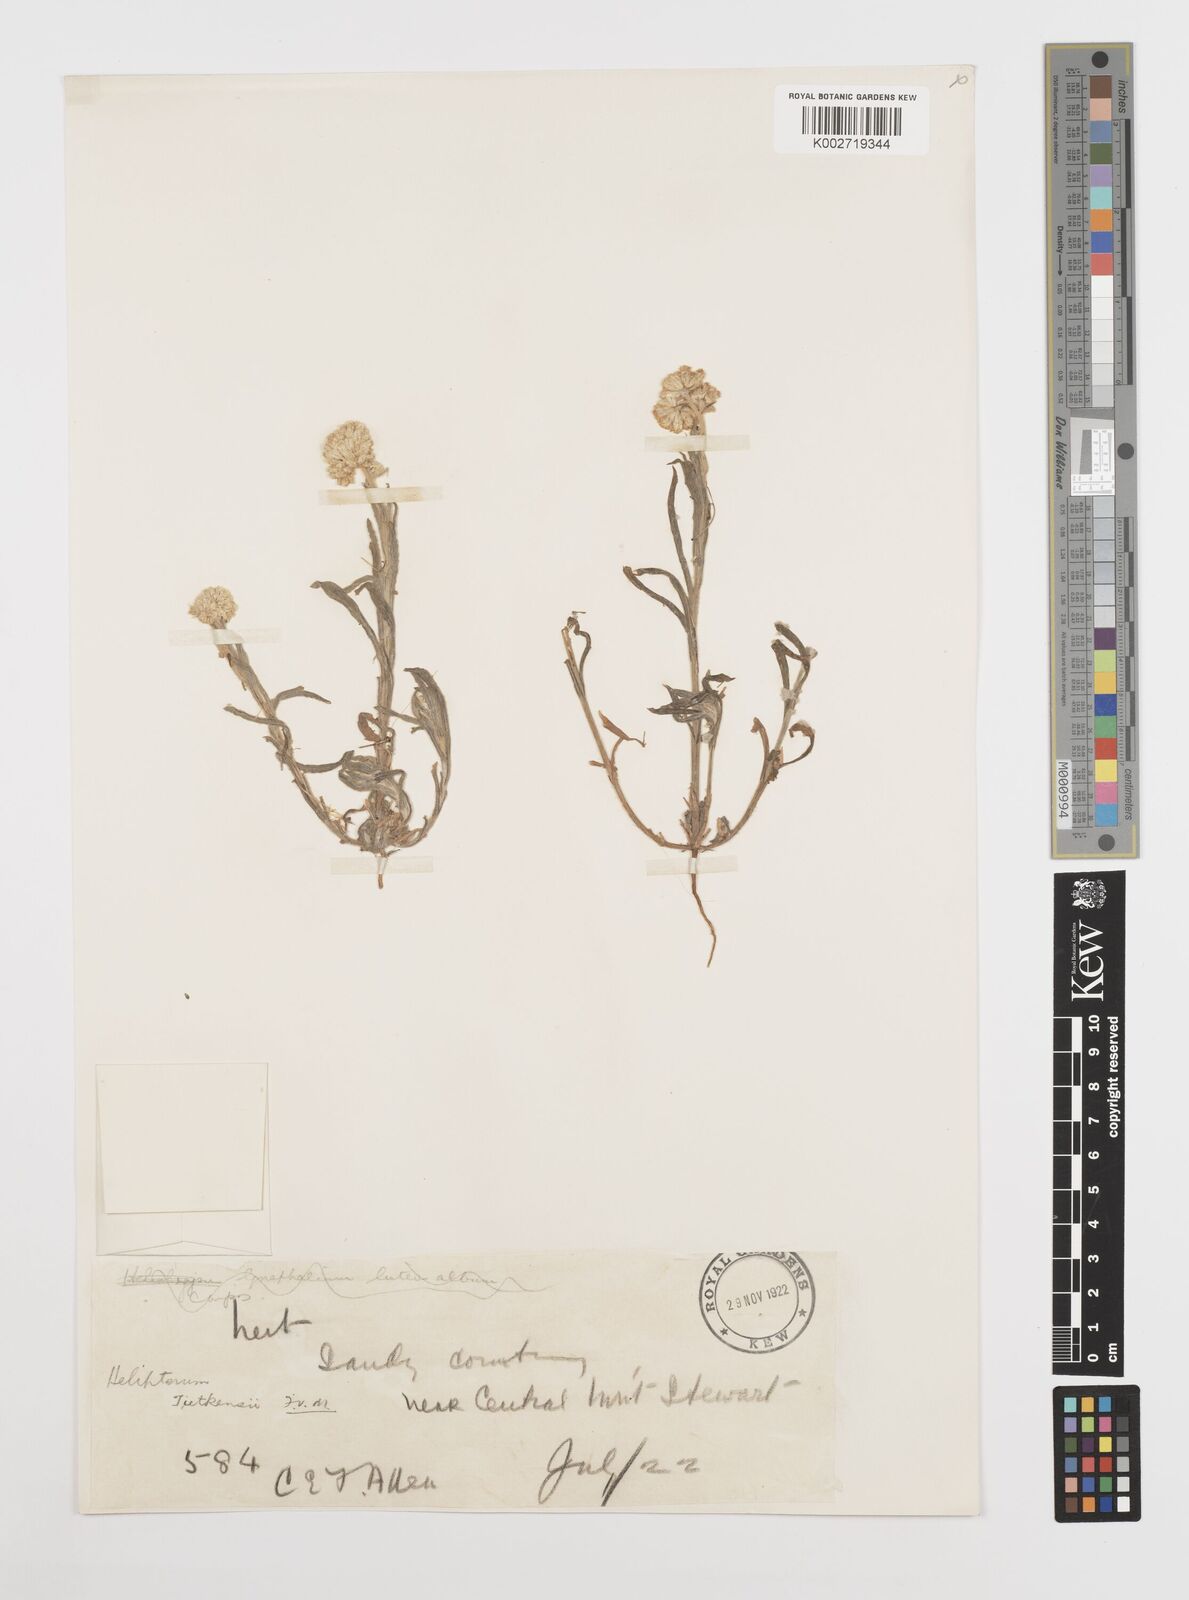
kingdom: Plantae
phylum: Tracheophyta
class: Magnoliopsida
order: Asterales
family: Asteraceae
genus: Rhodanthe
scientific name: Rhodanthe tietkensii
